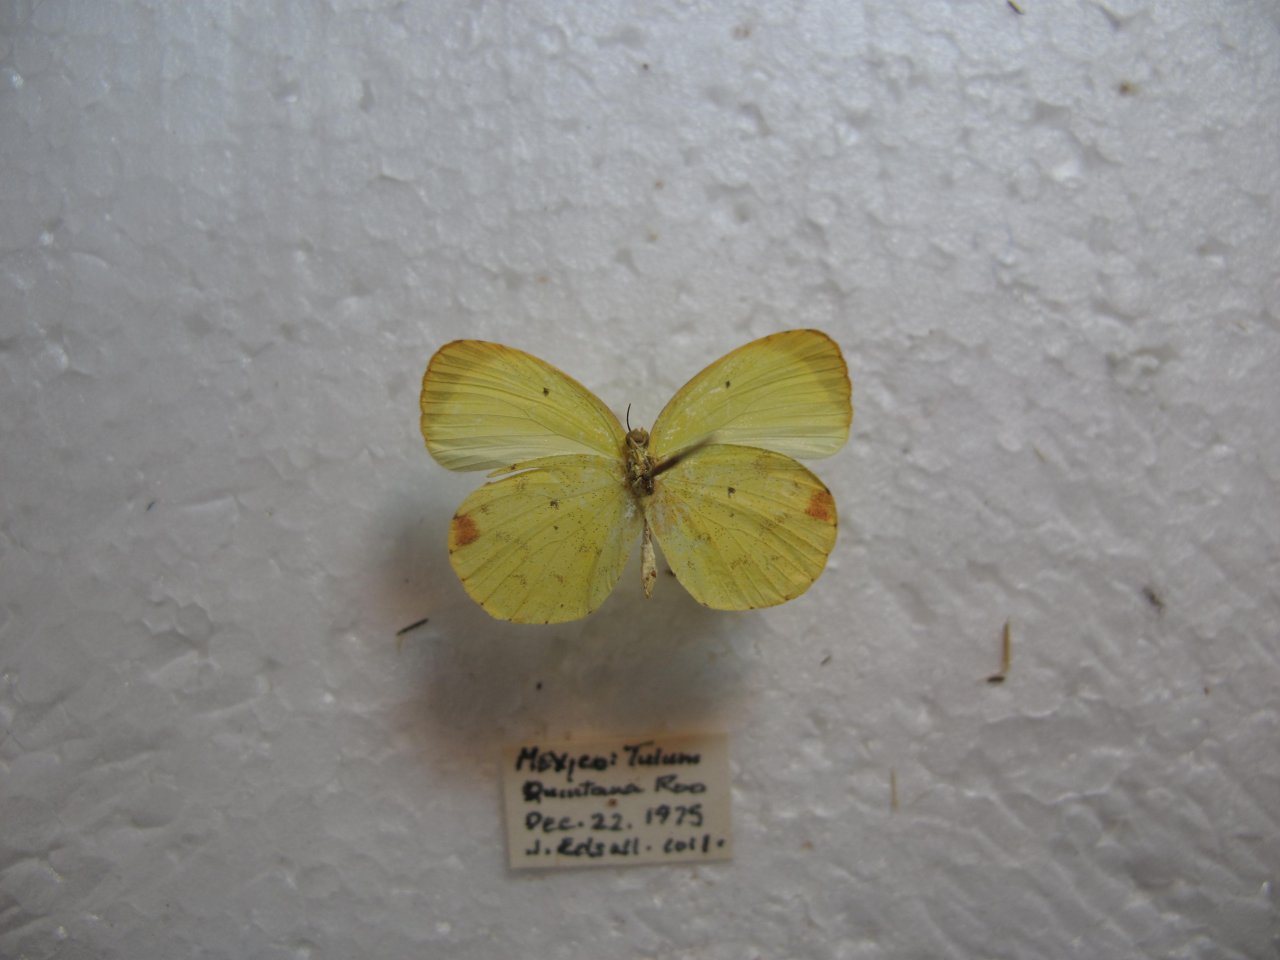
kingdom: Animalia
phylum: Arthropoda
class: Insecta
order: Lepidoptera
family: Pieridae
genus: Pyrisitia
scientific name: Pyrisitia nise
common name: Mimosa Yellow
